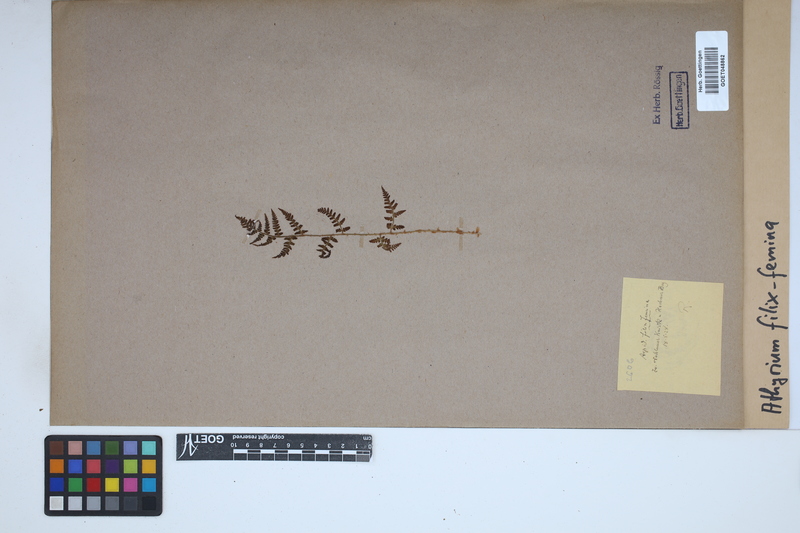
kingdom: Plantae
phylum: Tracheophyta
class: Polypodiopsida
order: Polypodiales
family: Athyriaceae
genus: Athyrium
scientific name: Athyrium filix-femina
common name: Lady fern
